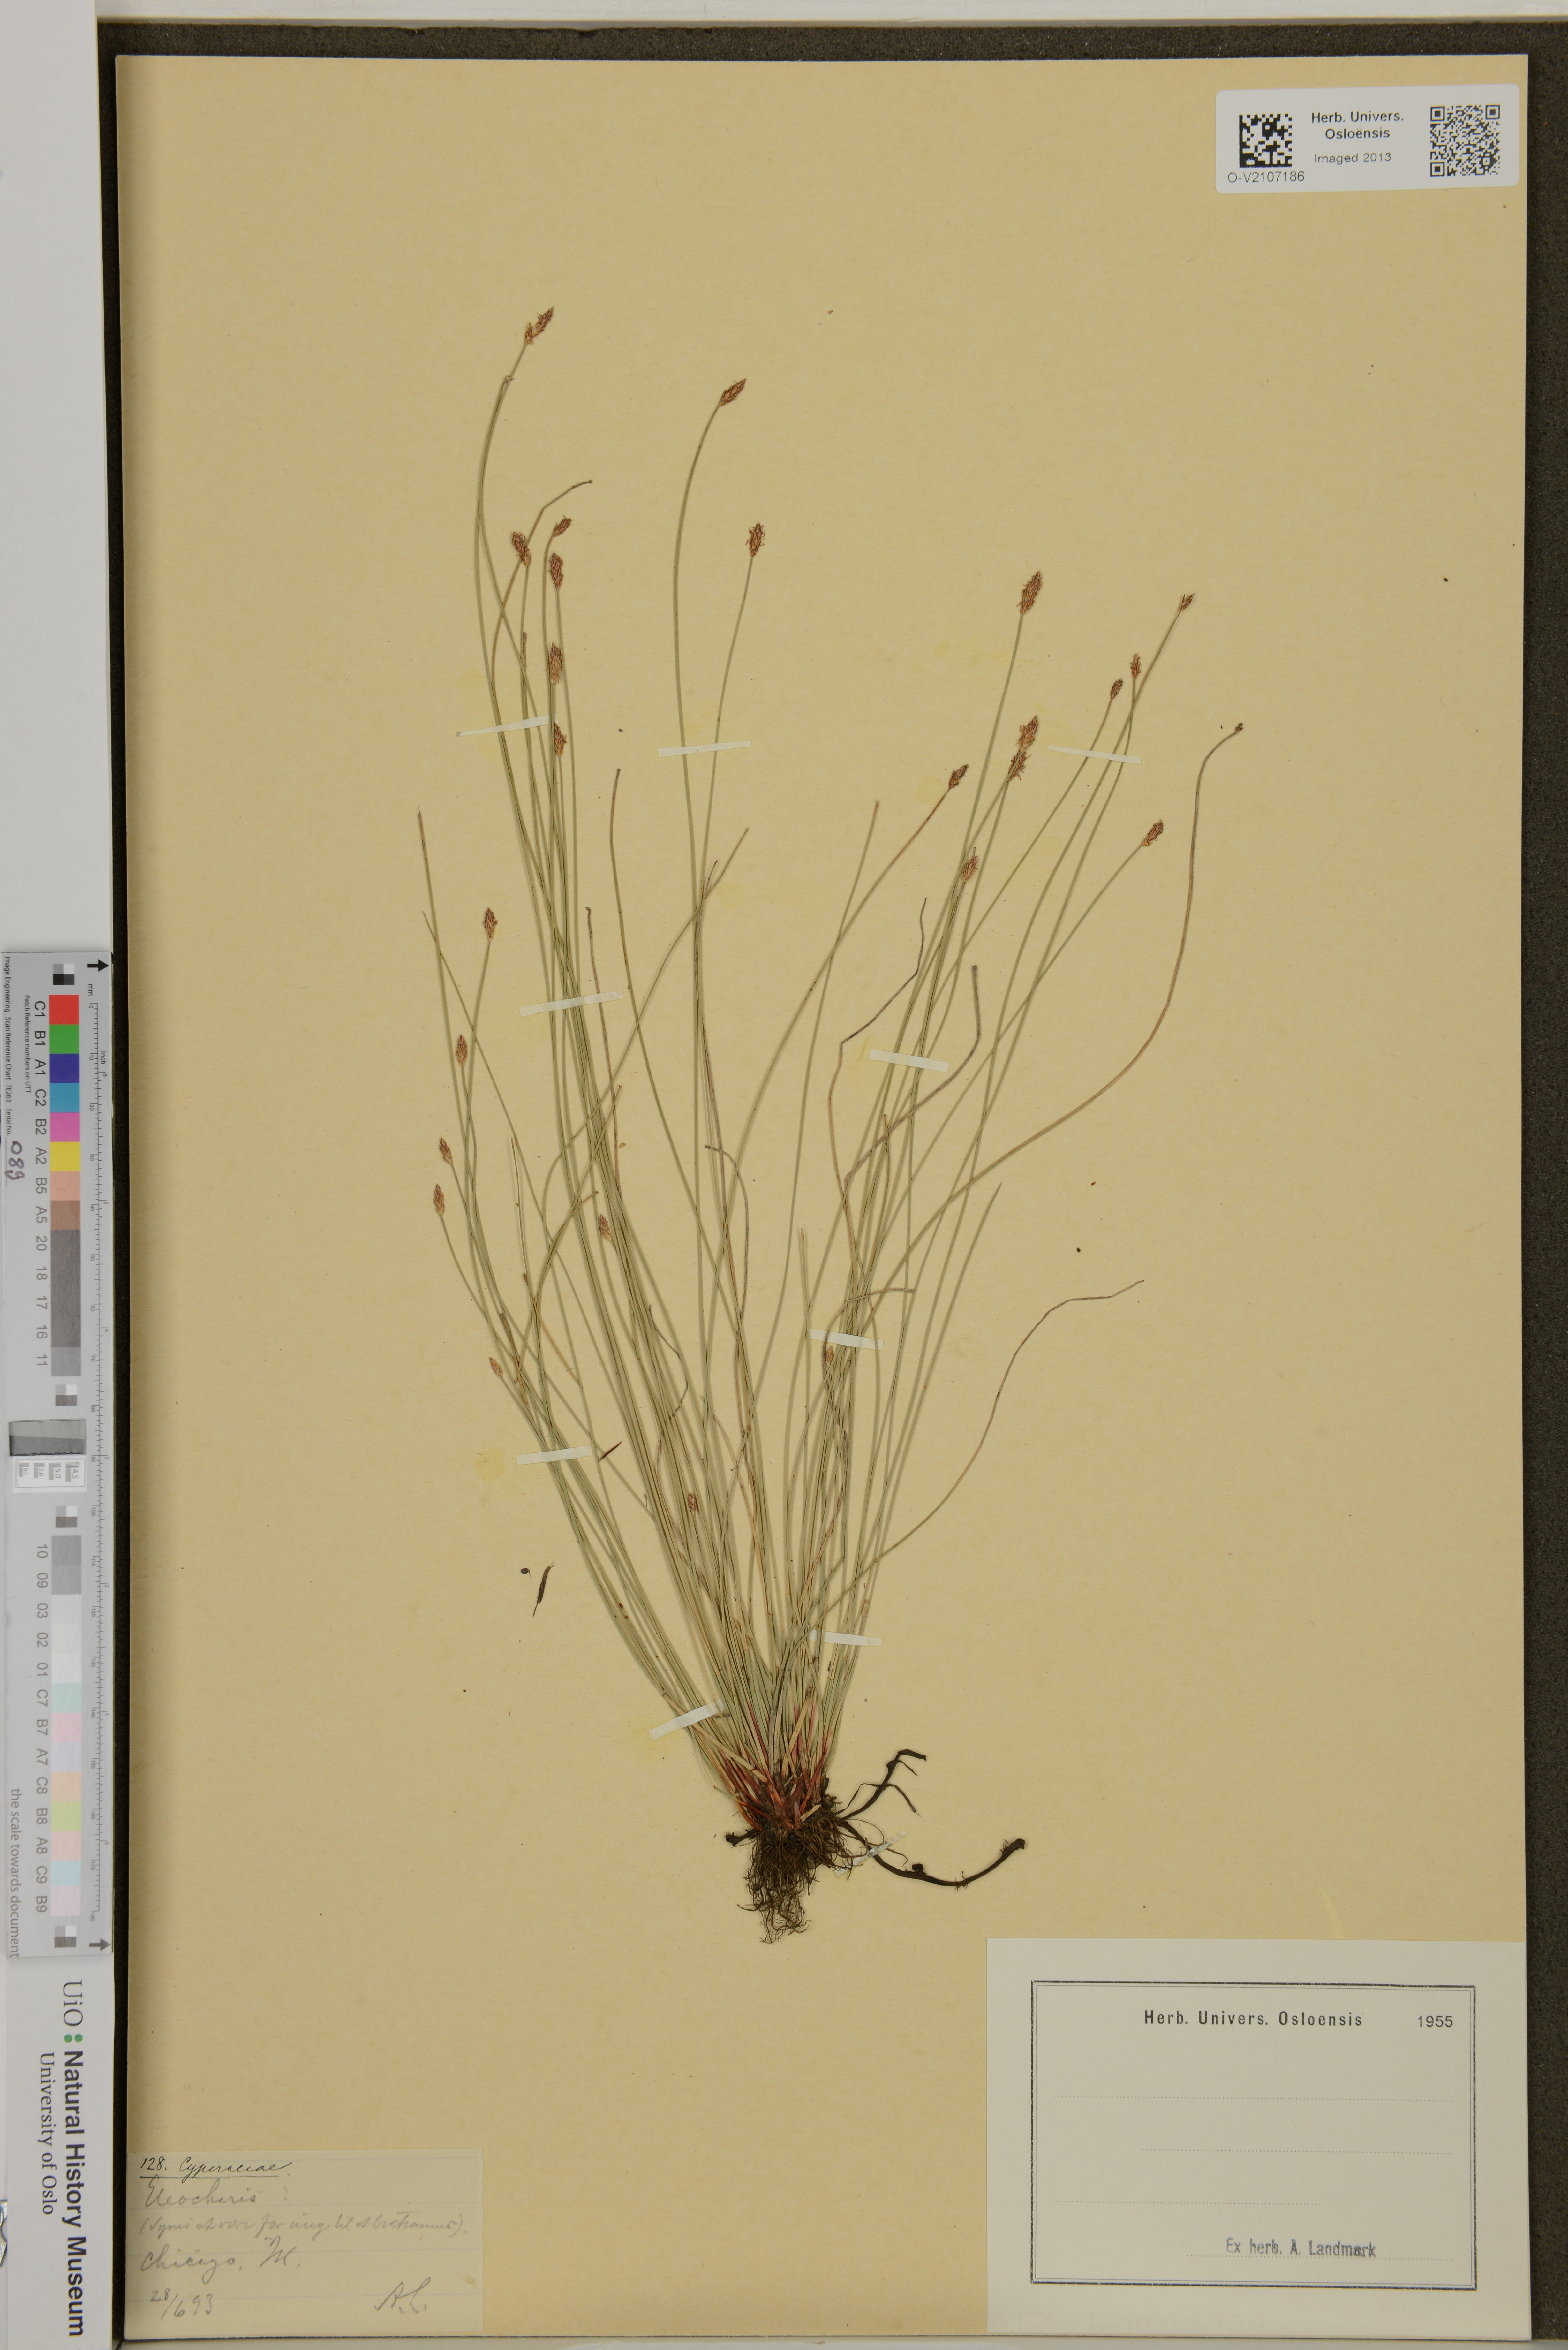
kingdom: Plantae
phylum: Tracheophyta
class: Liliopsida
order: Poales
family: Cyperaceae
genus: Eleocharis
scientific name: Eleocharis
